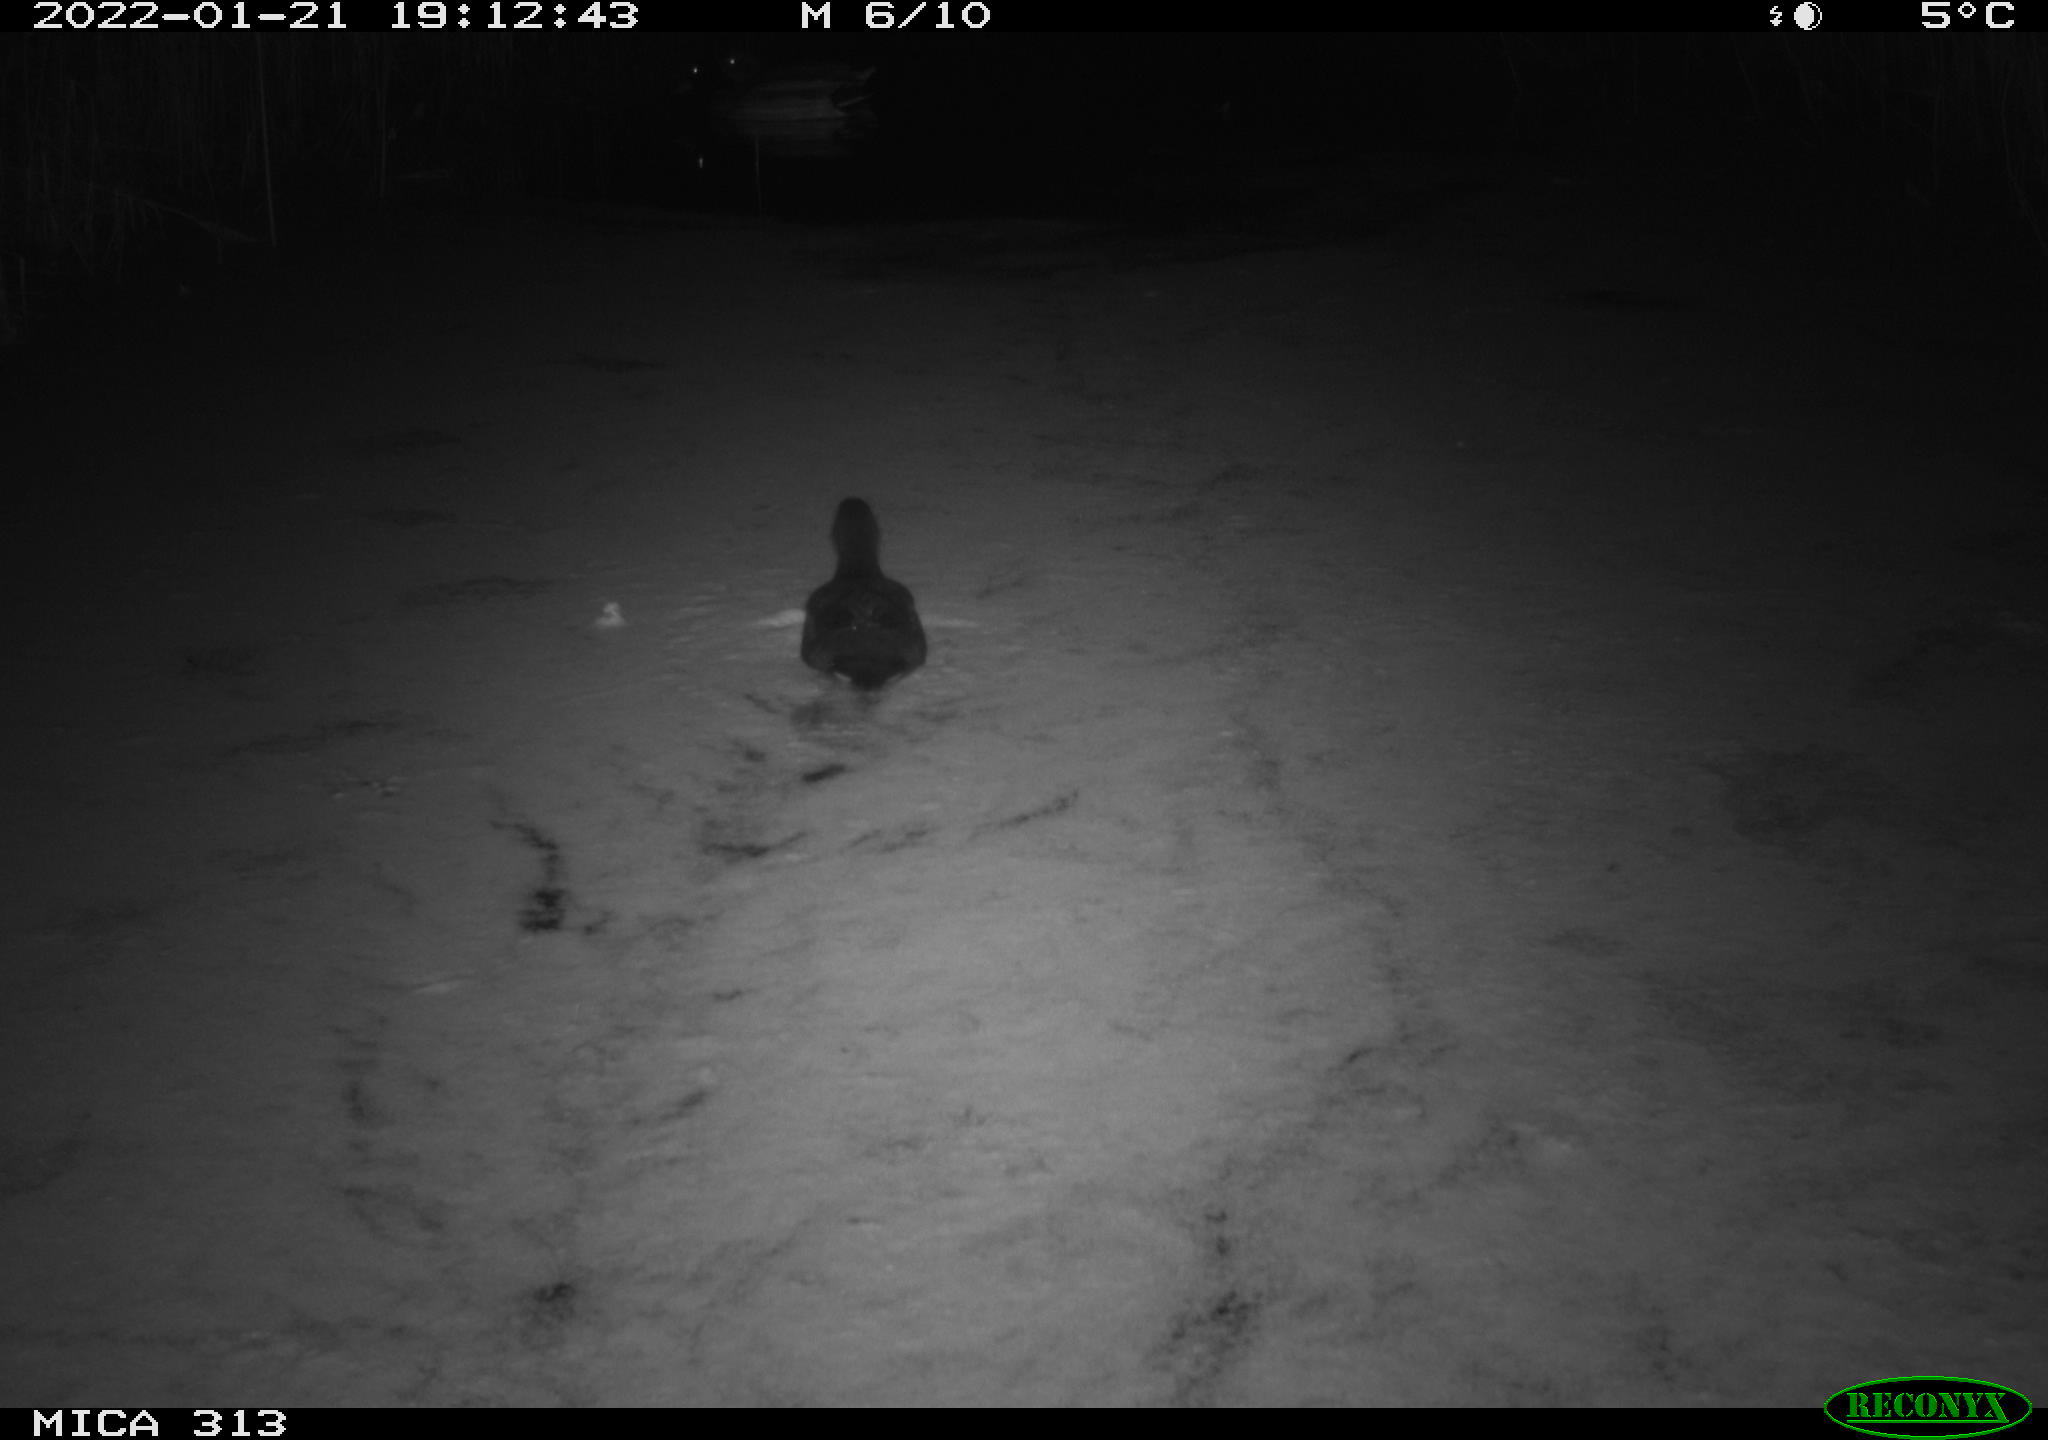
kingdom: Animalia
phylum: Chordata
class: Aves
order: Anseriformes
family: Anatidae
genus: Anas
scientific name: Anas
